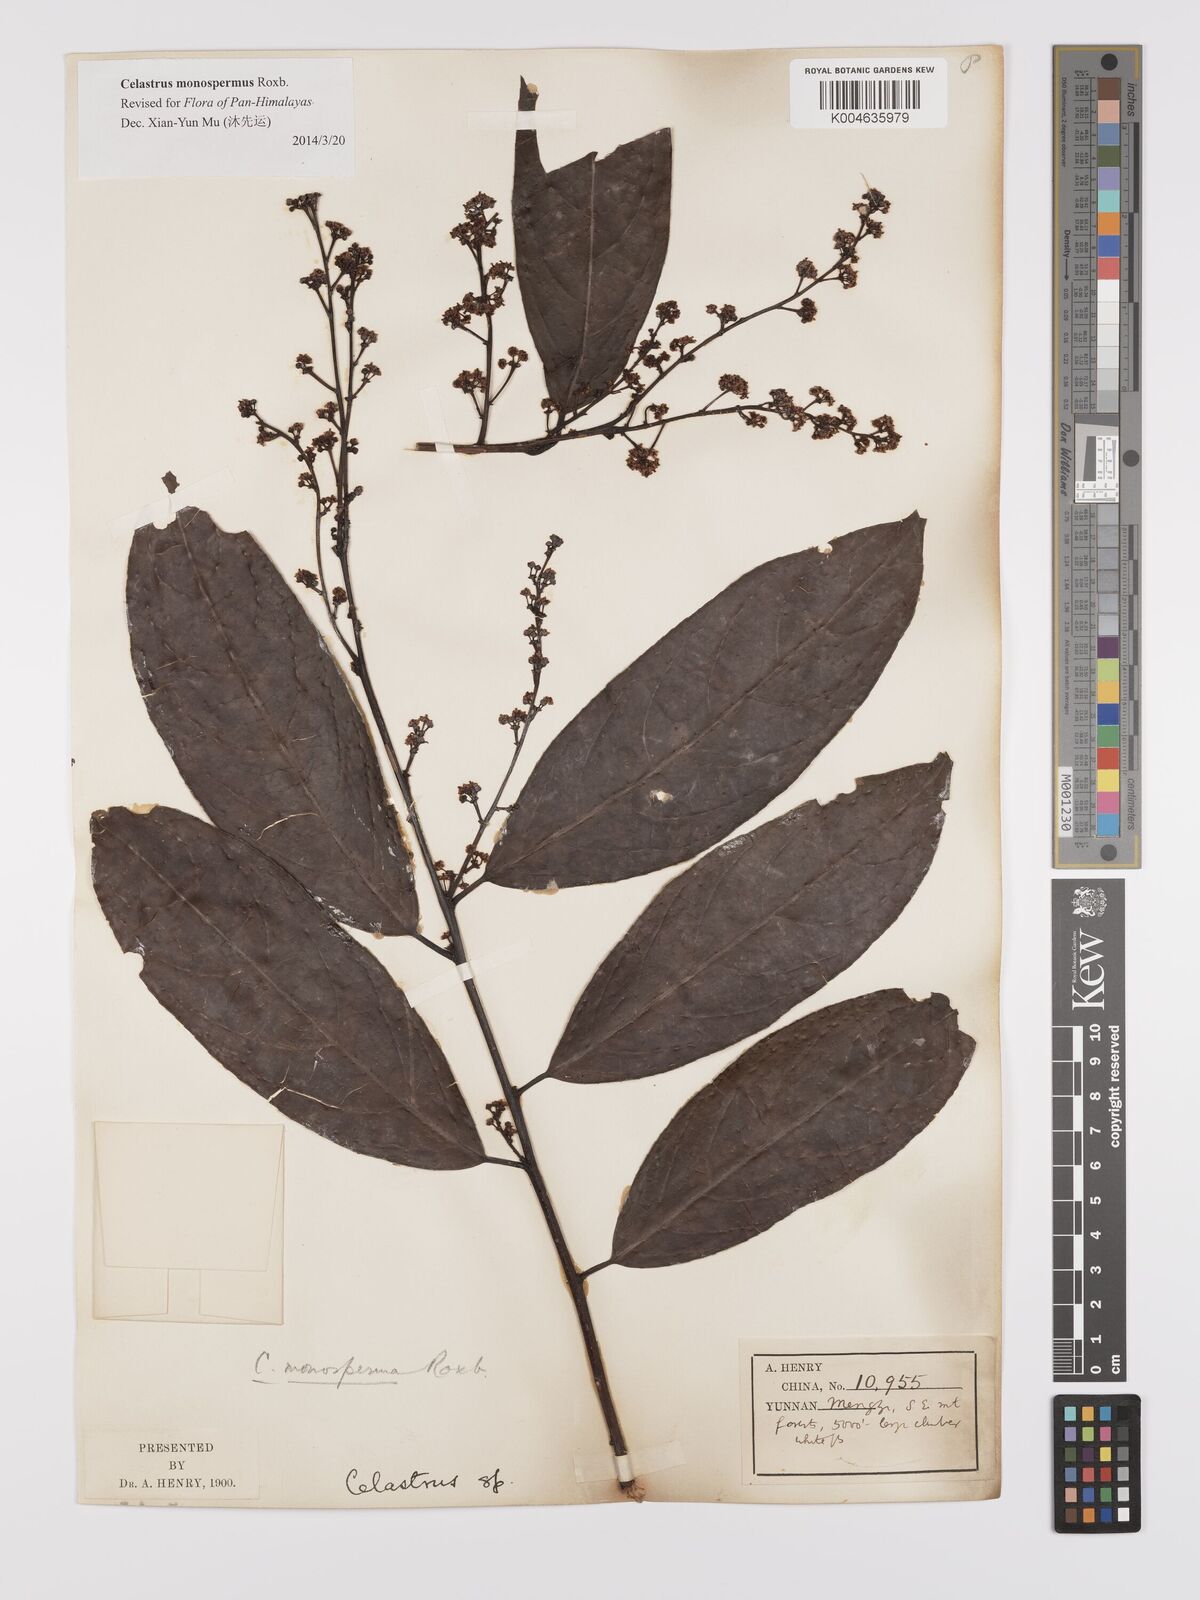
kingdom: Plantae
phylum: Tracheophyta
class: Magnoliopsida
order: Celastrales
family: Celastraceae
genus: Celastrus
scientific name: Celastrus monospermus
